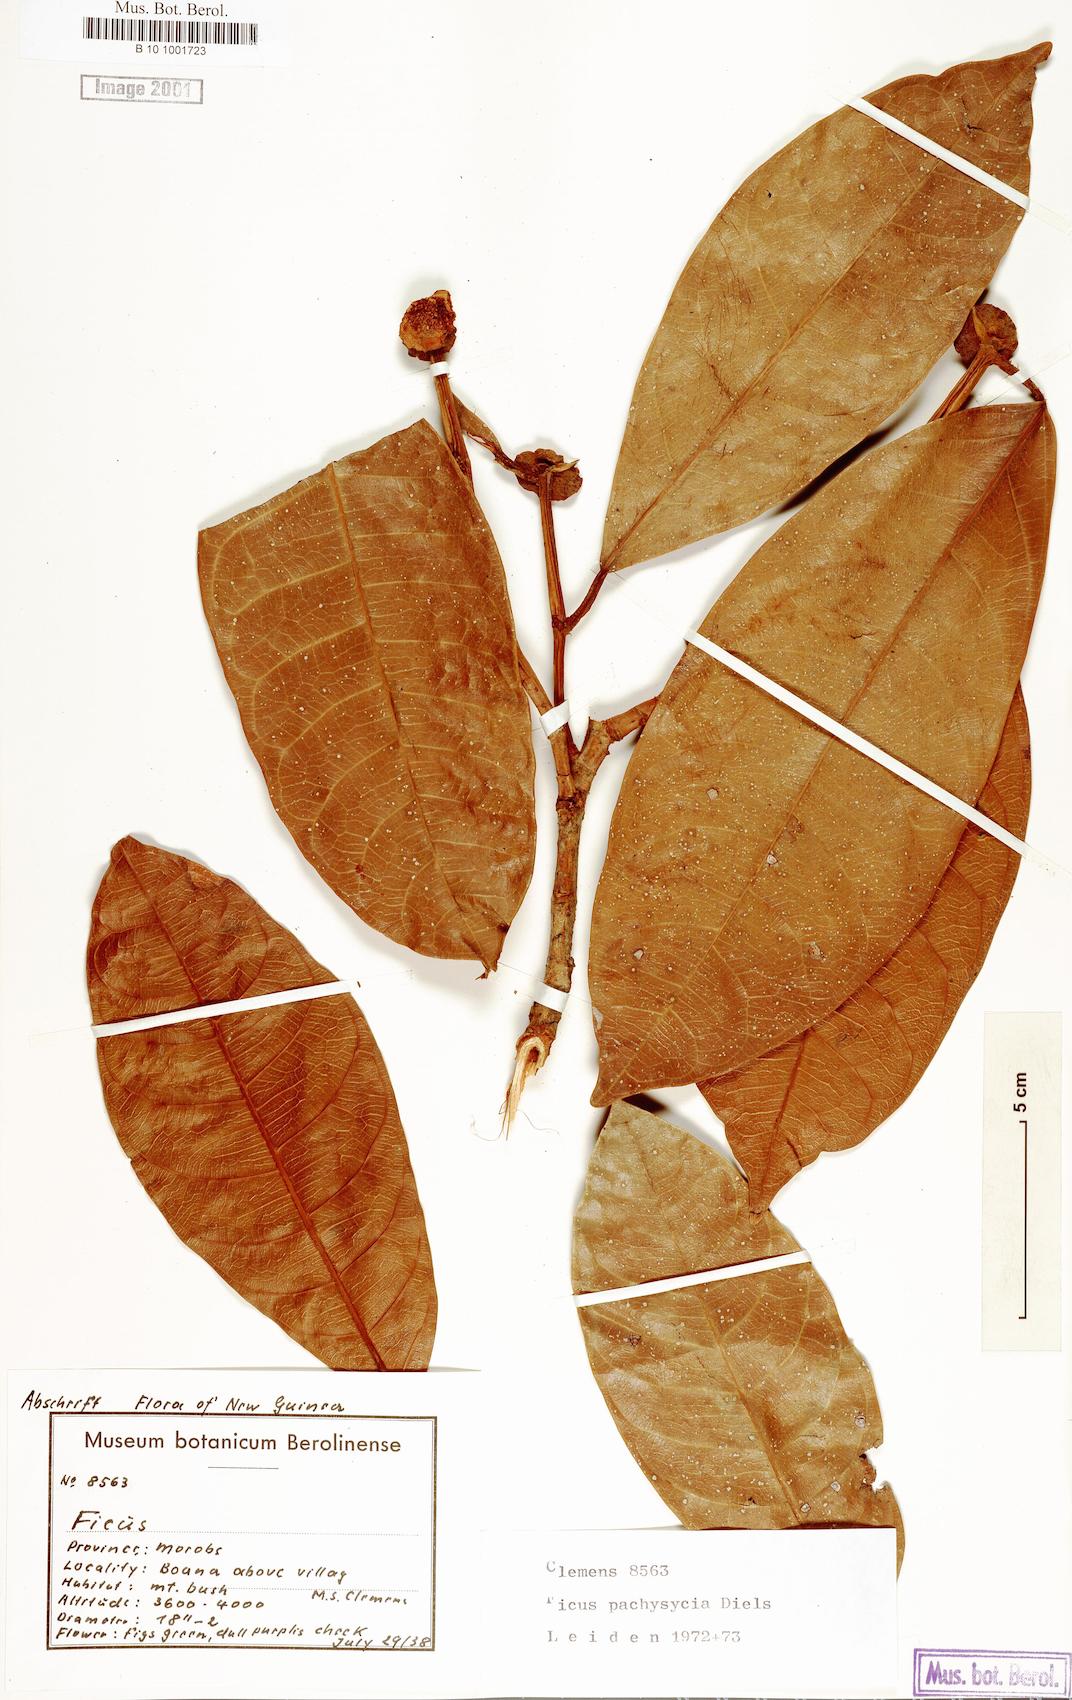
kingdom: Plantae
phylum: Tracheophyta
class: Magnoliopsida
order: Rosales
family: Moraceae
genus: Ficus
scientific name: Ficus pachysycia
